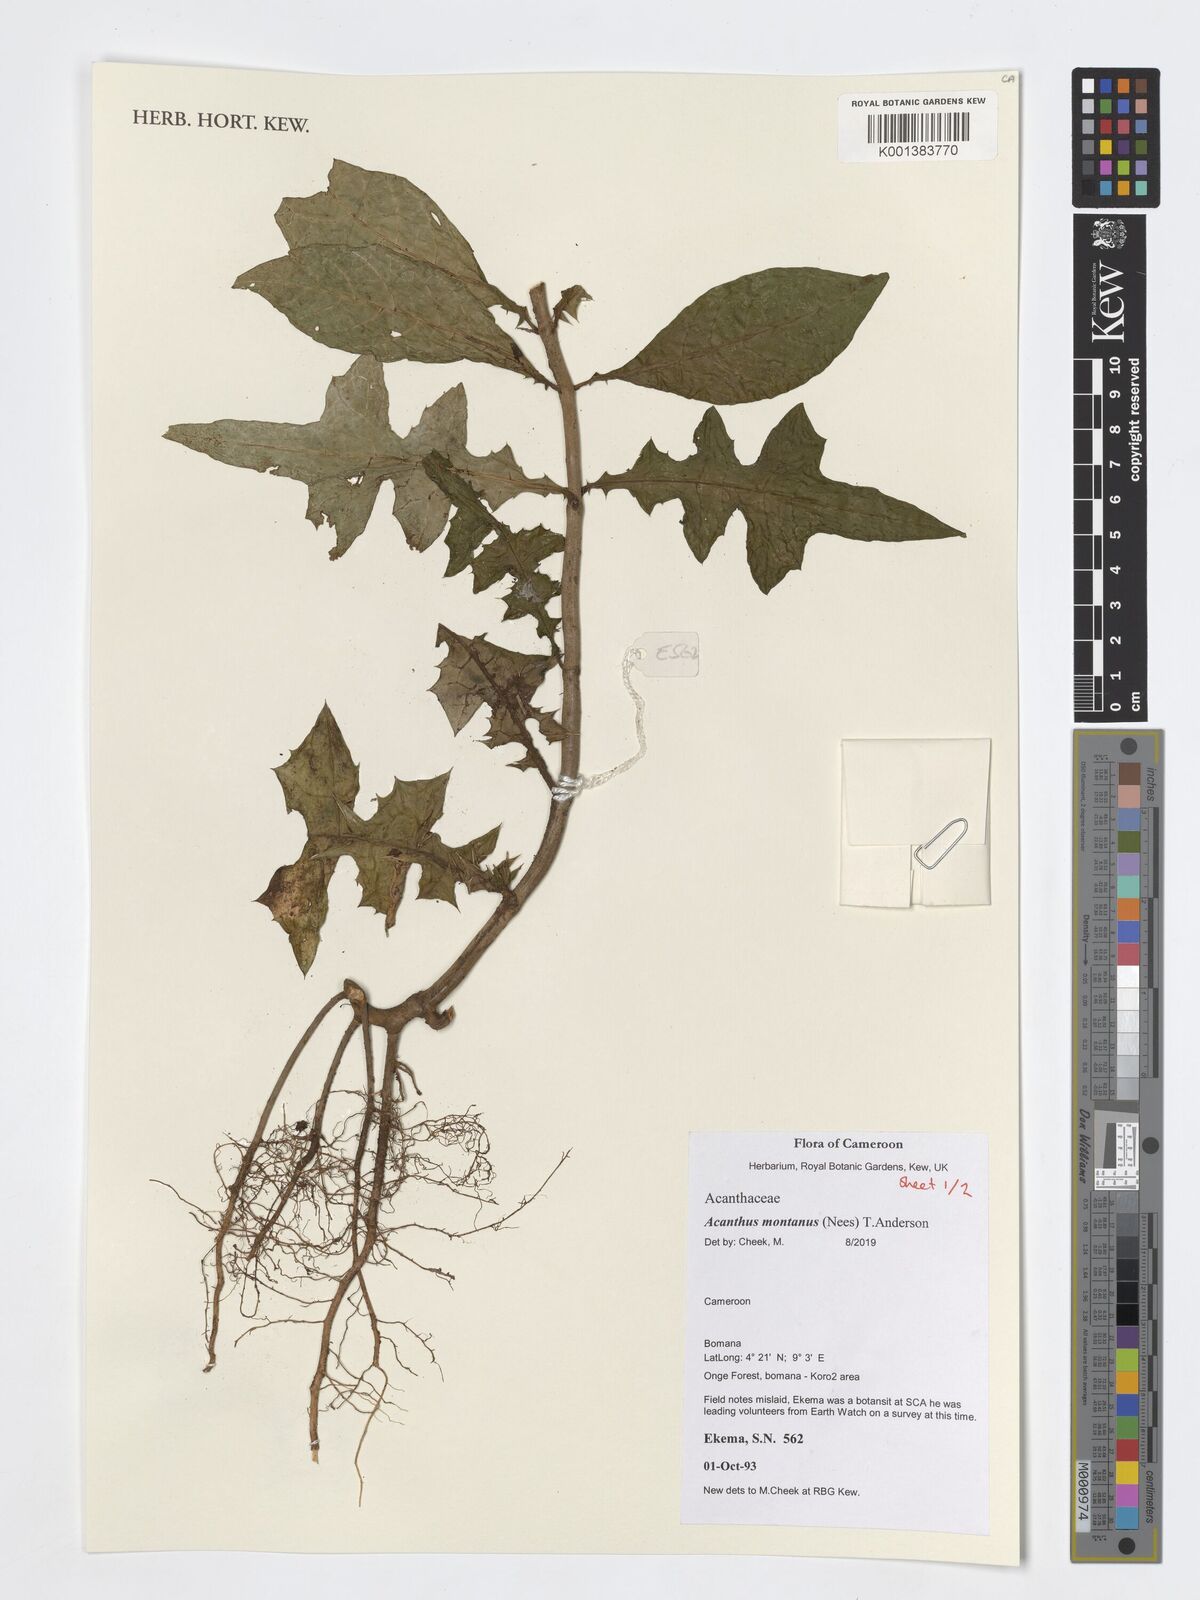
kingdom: Plantae
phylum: Tracheophyta
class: Magnoliopsida
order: Lamiales
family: Acanthaceae
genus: Acanthus
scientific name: Acanthus montanus
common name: Mountain thistle
